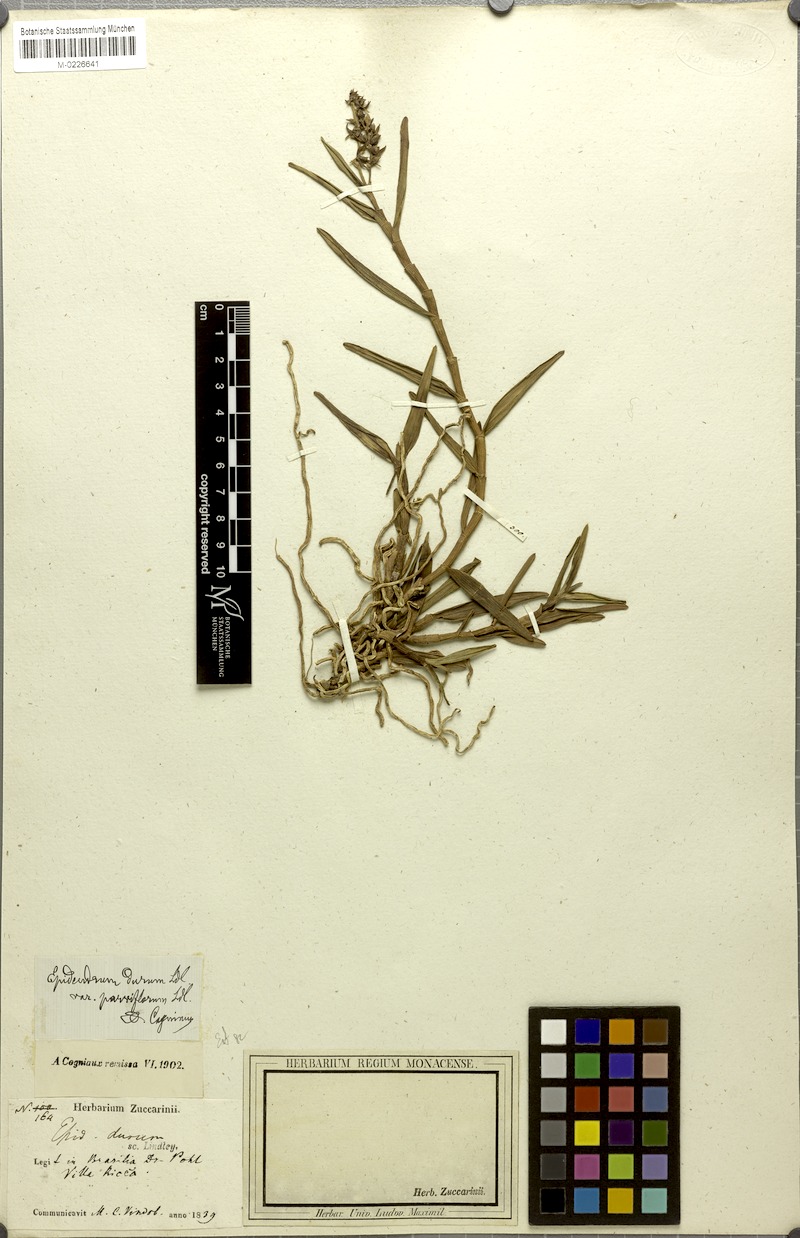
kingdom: Plantae
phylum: Tracheophyta
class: Liliopsida
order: Asparagales
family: Orchidaceae
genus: Epidendrum
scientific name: Epidendrum durum
